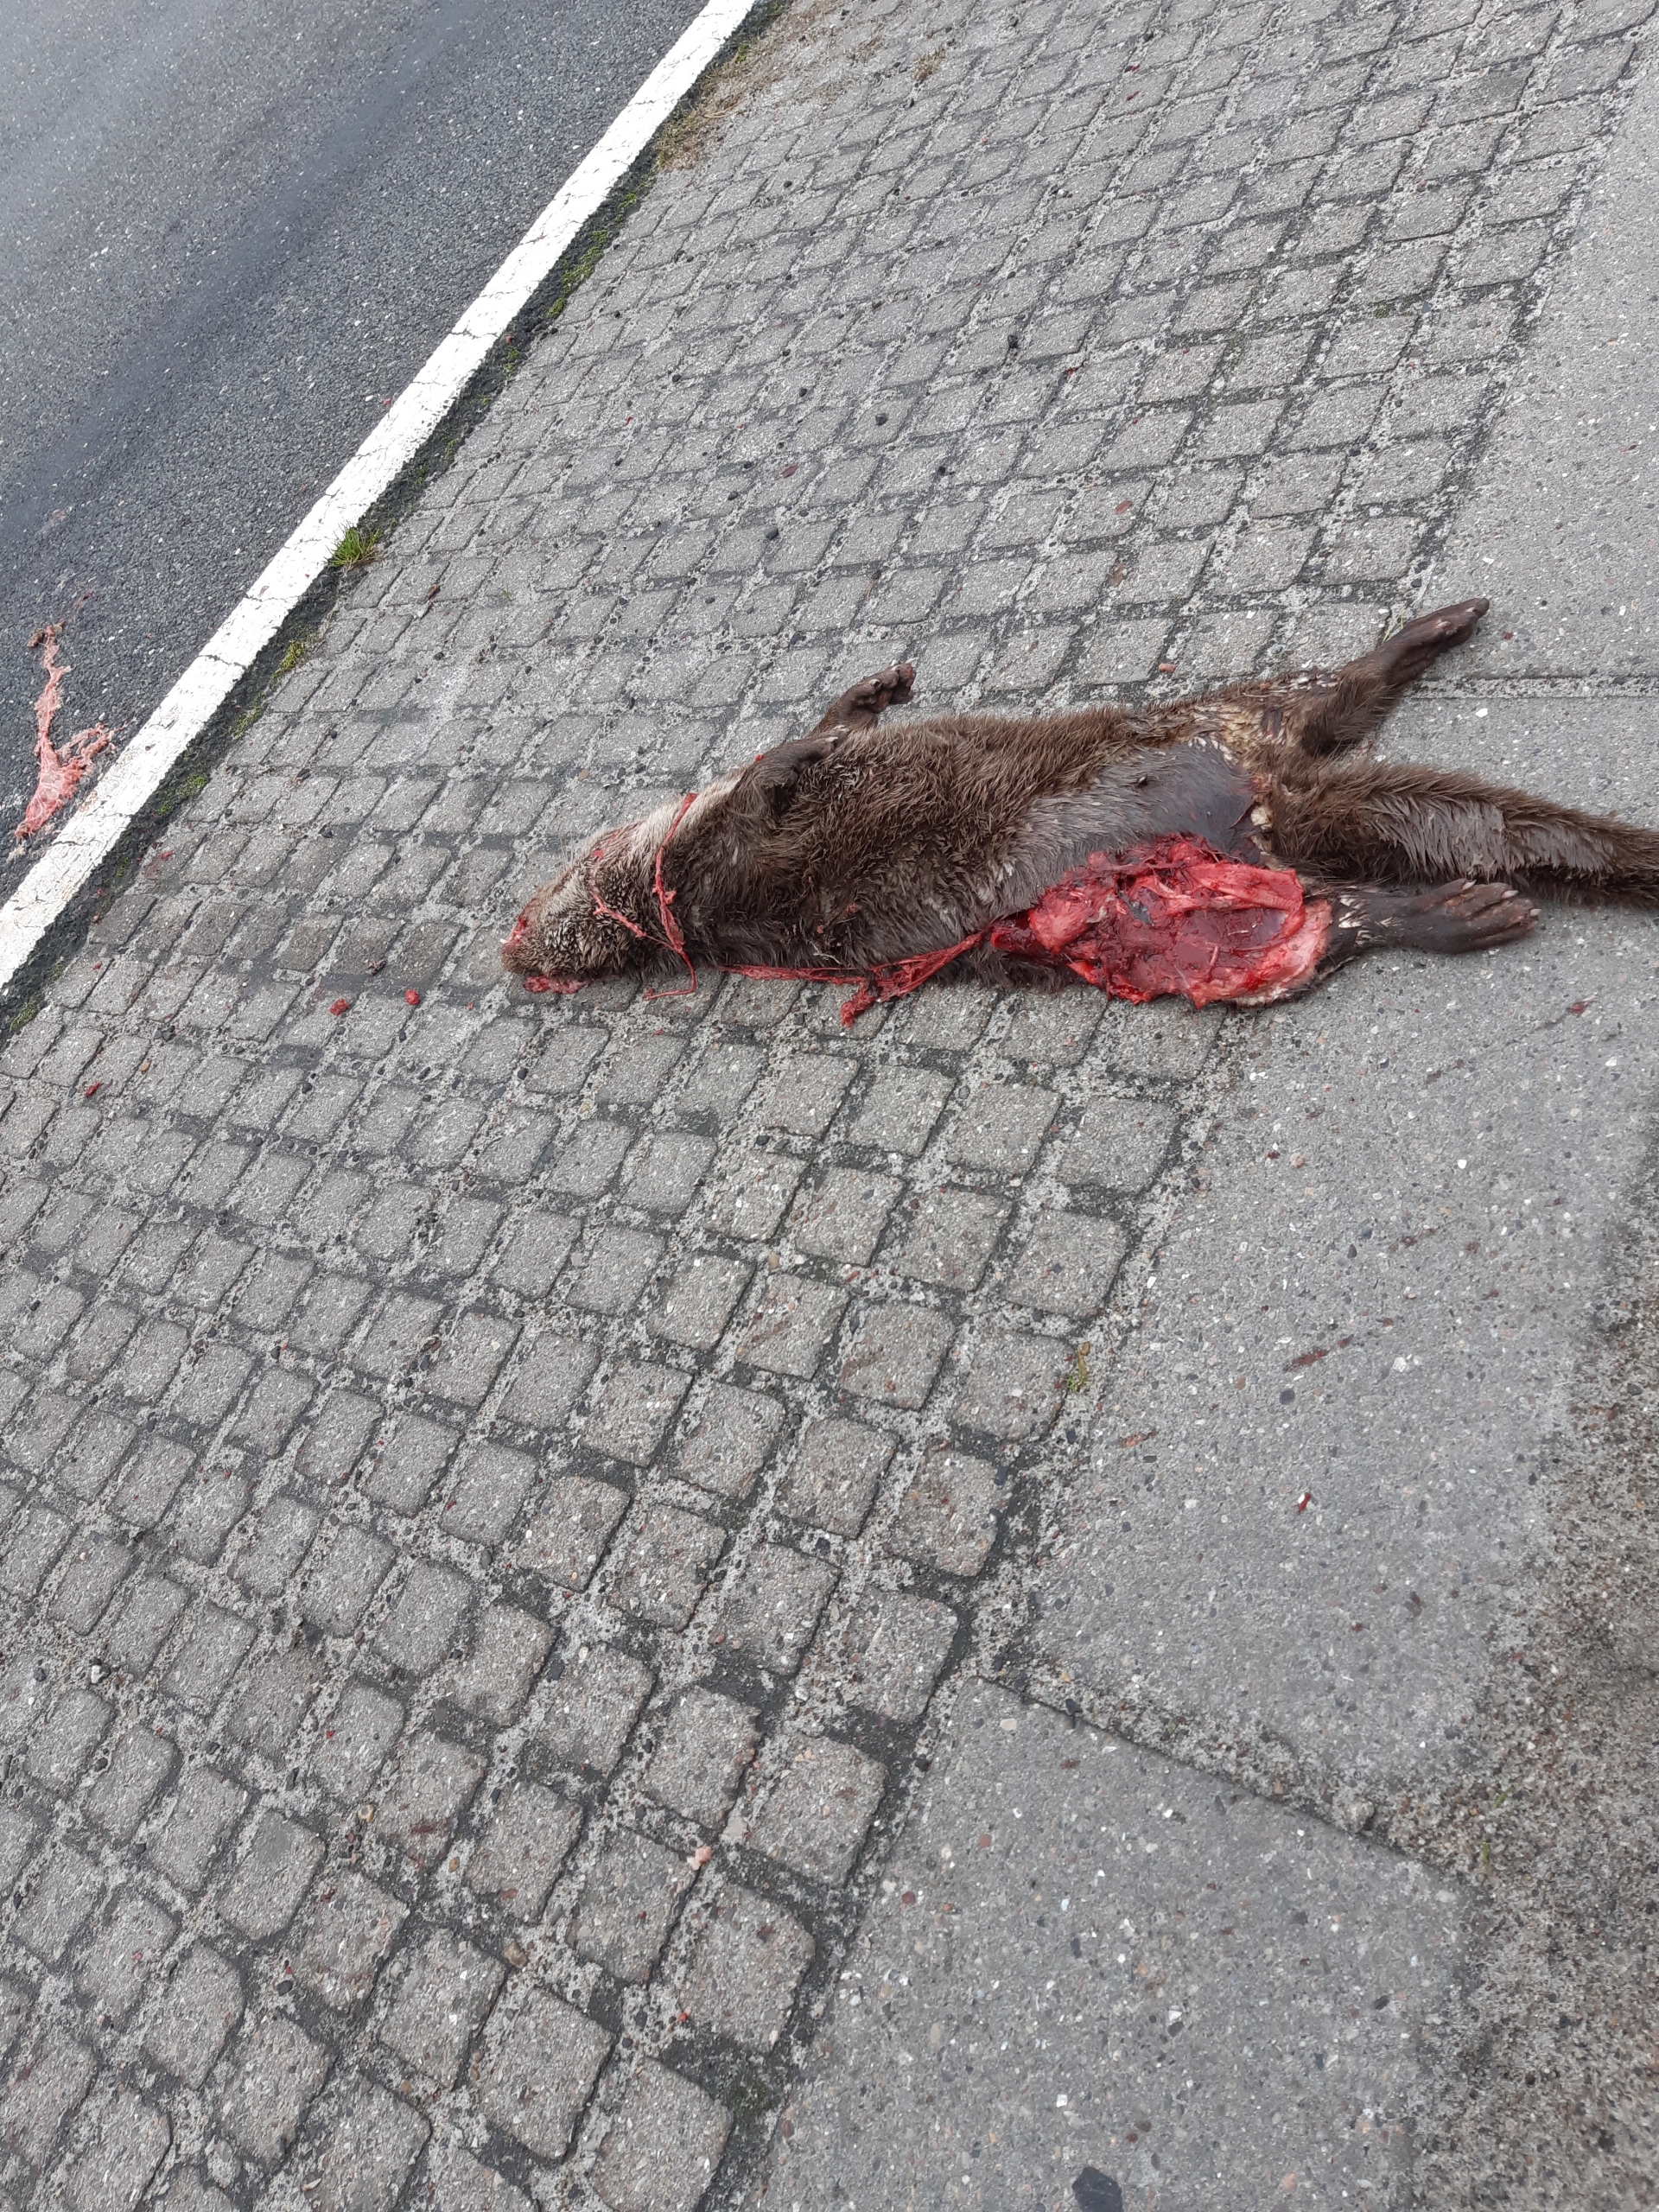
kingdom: Animalia
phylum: Chordata
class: Mammalia
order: Carnivora
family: Mustelidae
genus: Lutra
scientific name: Lutra lutra
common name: Odder
